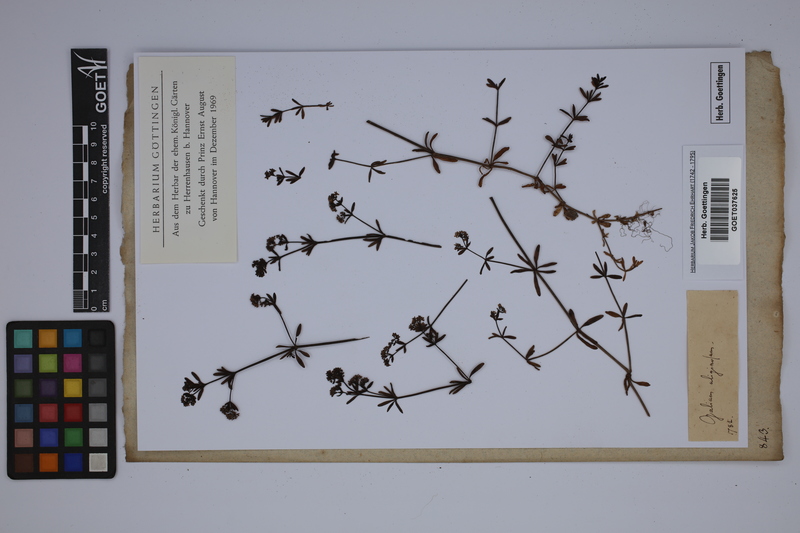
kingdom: Plantae
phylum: Tracheophyta
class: Magnoliopsida
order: Gentianales
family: Rubiaceae
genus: Galium
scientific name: Galium uliginosum
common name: Fen bedstraw
